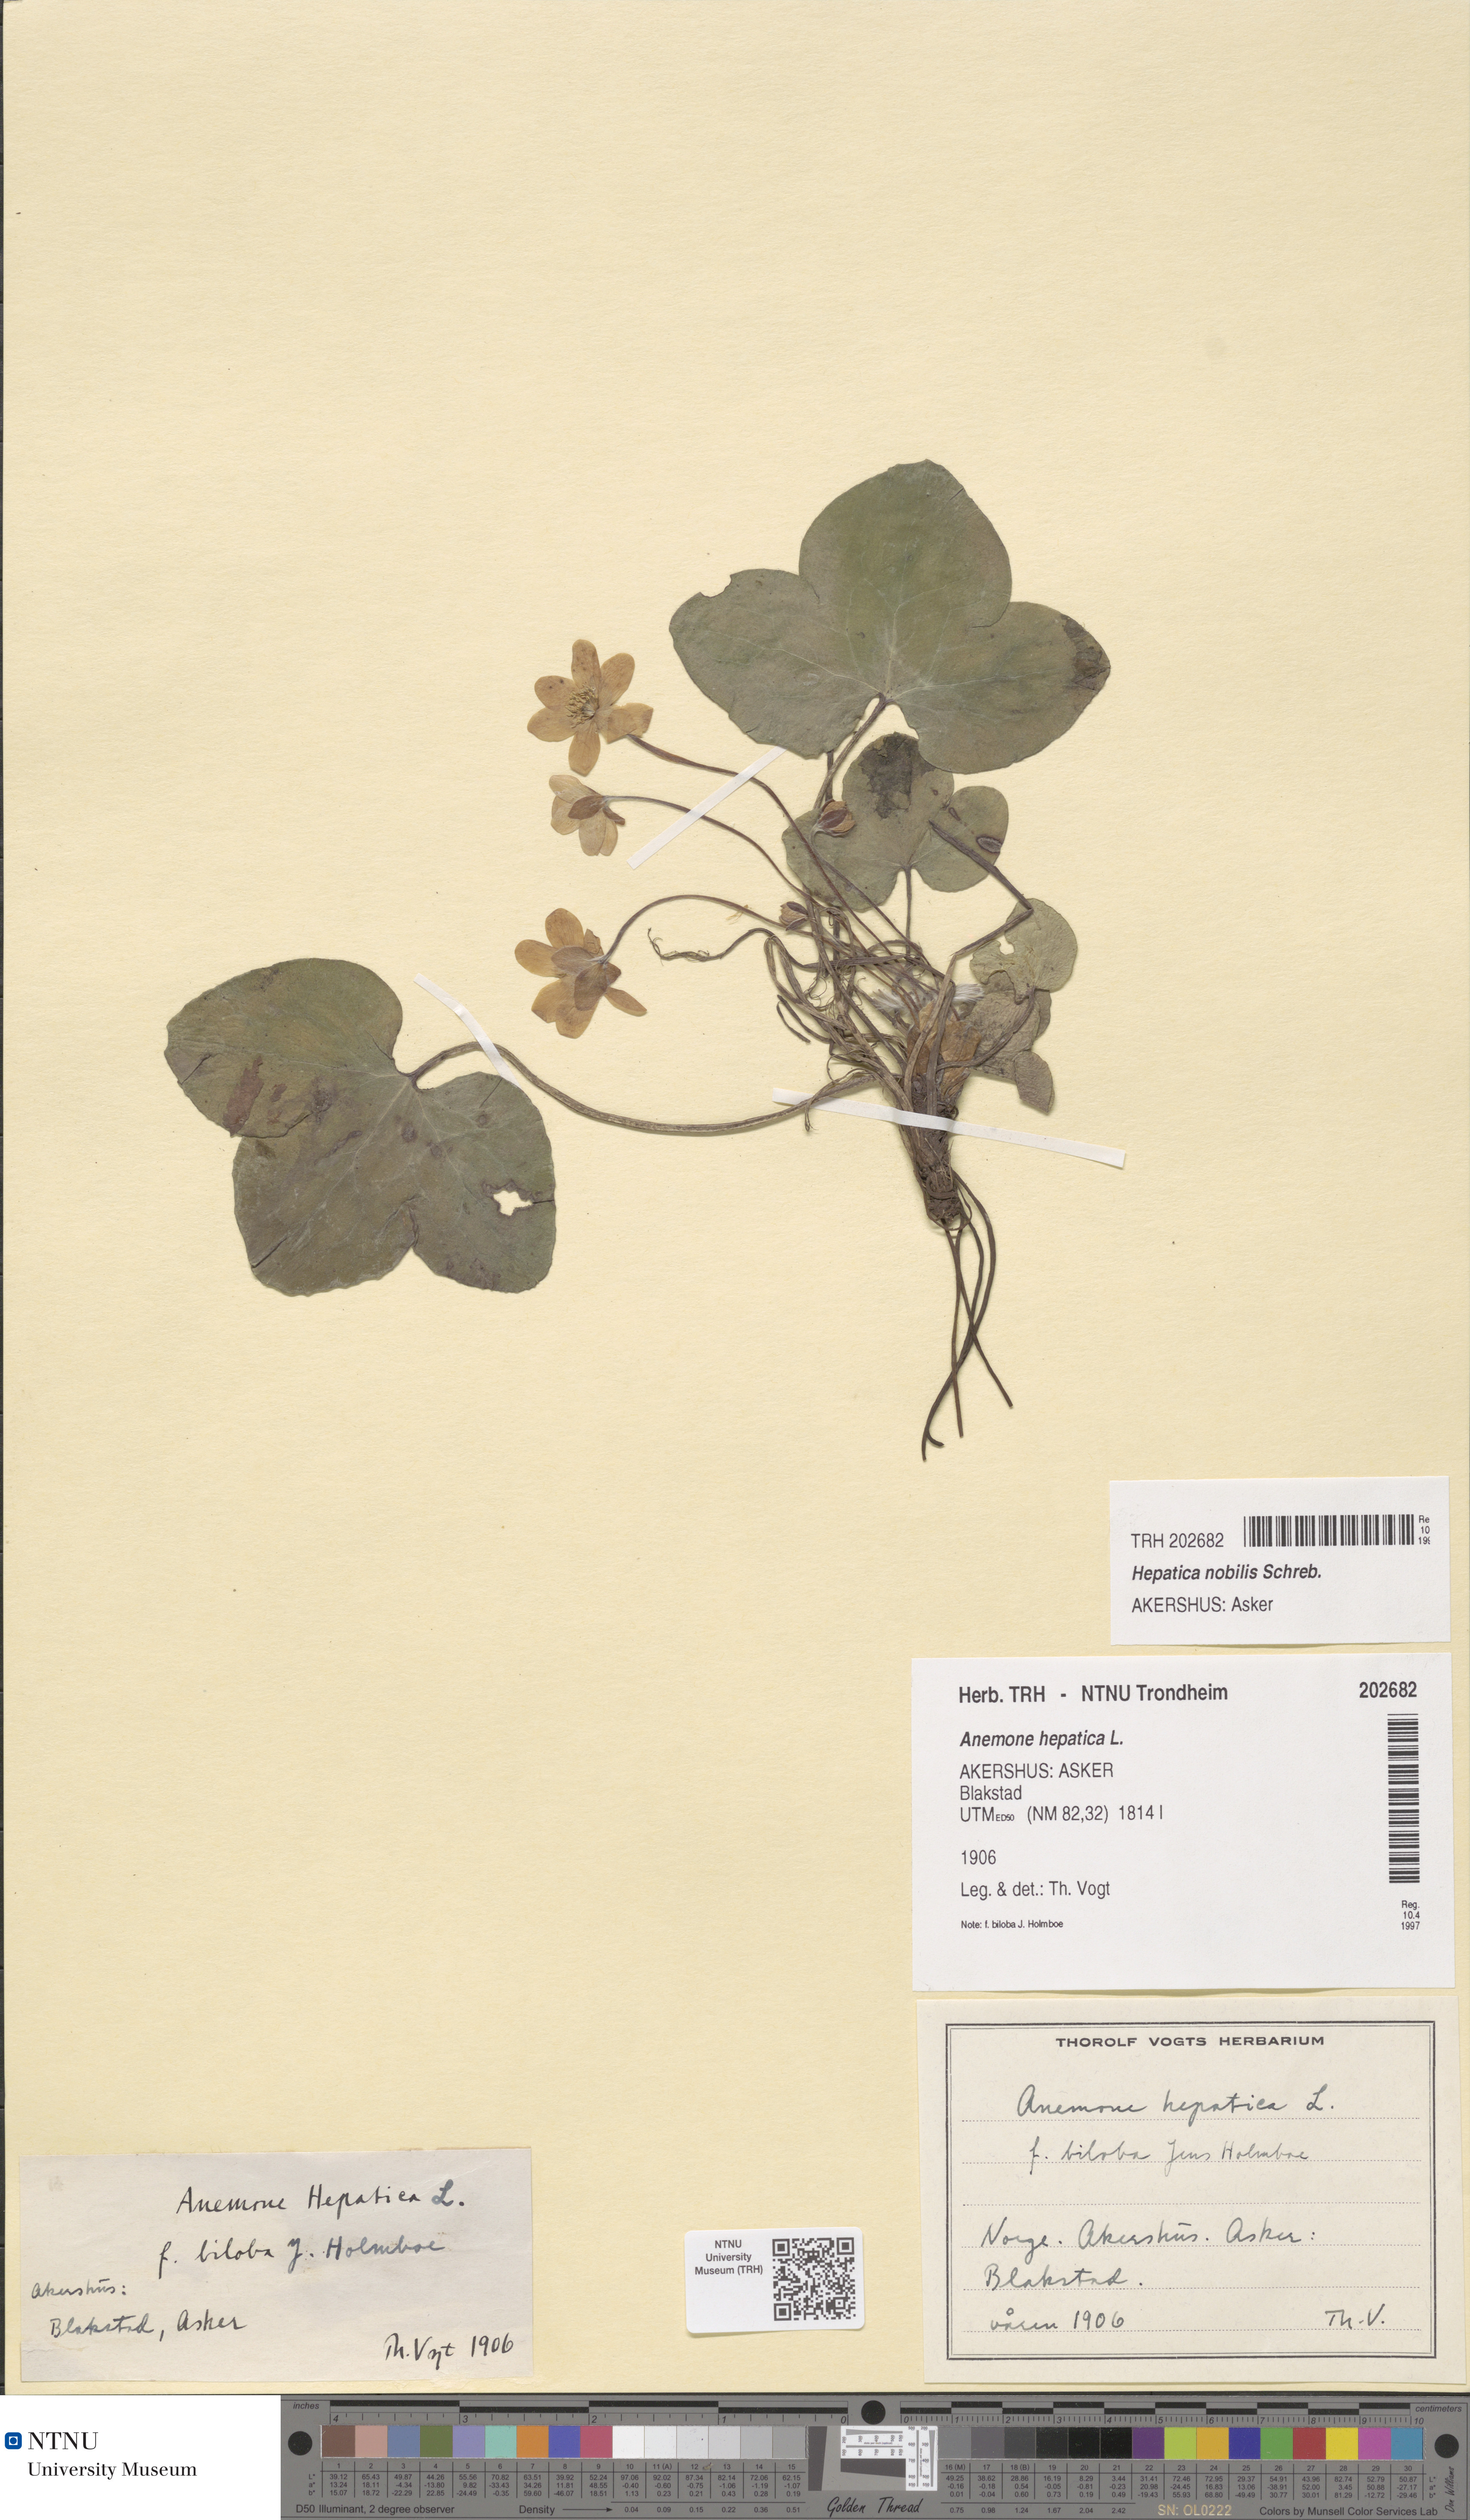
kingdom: Plantae
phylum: Tracheophyta
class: Magnoliopsida
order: Ranunculales
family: Ranunculaceae
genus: Hepatica
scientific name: Hepatica nobilis
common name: Liverleaf
